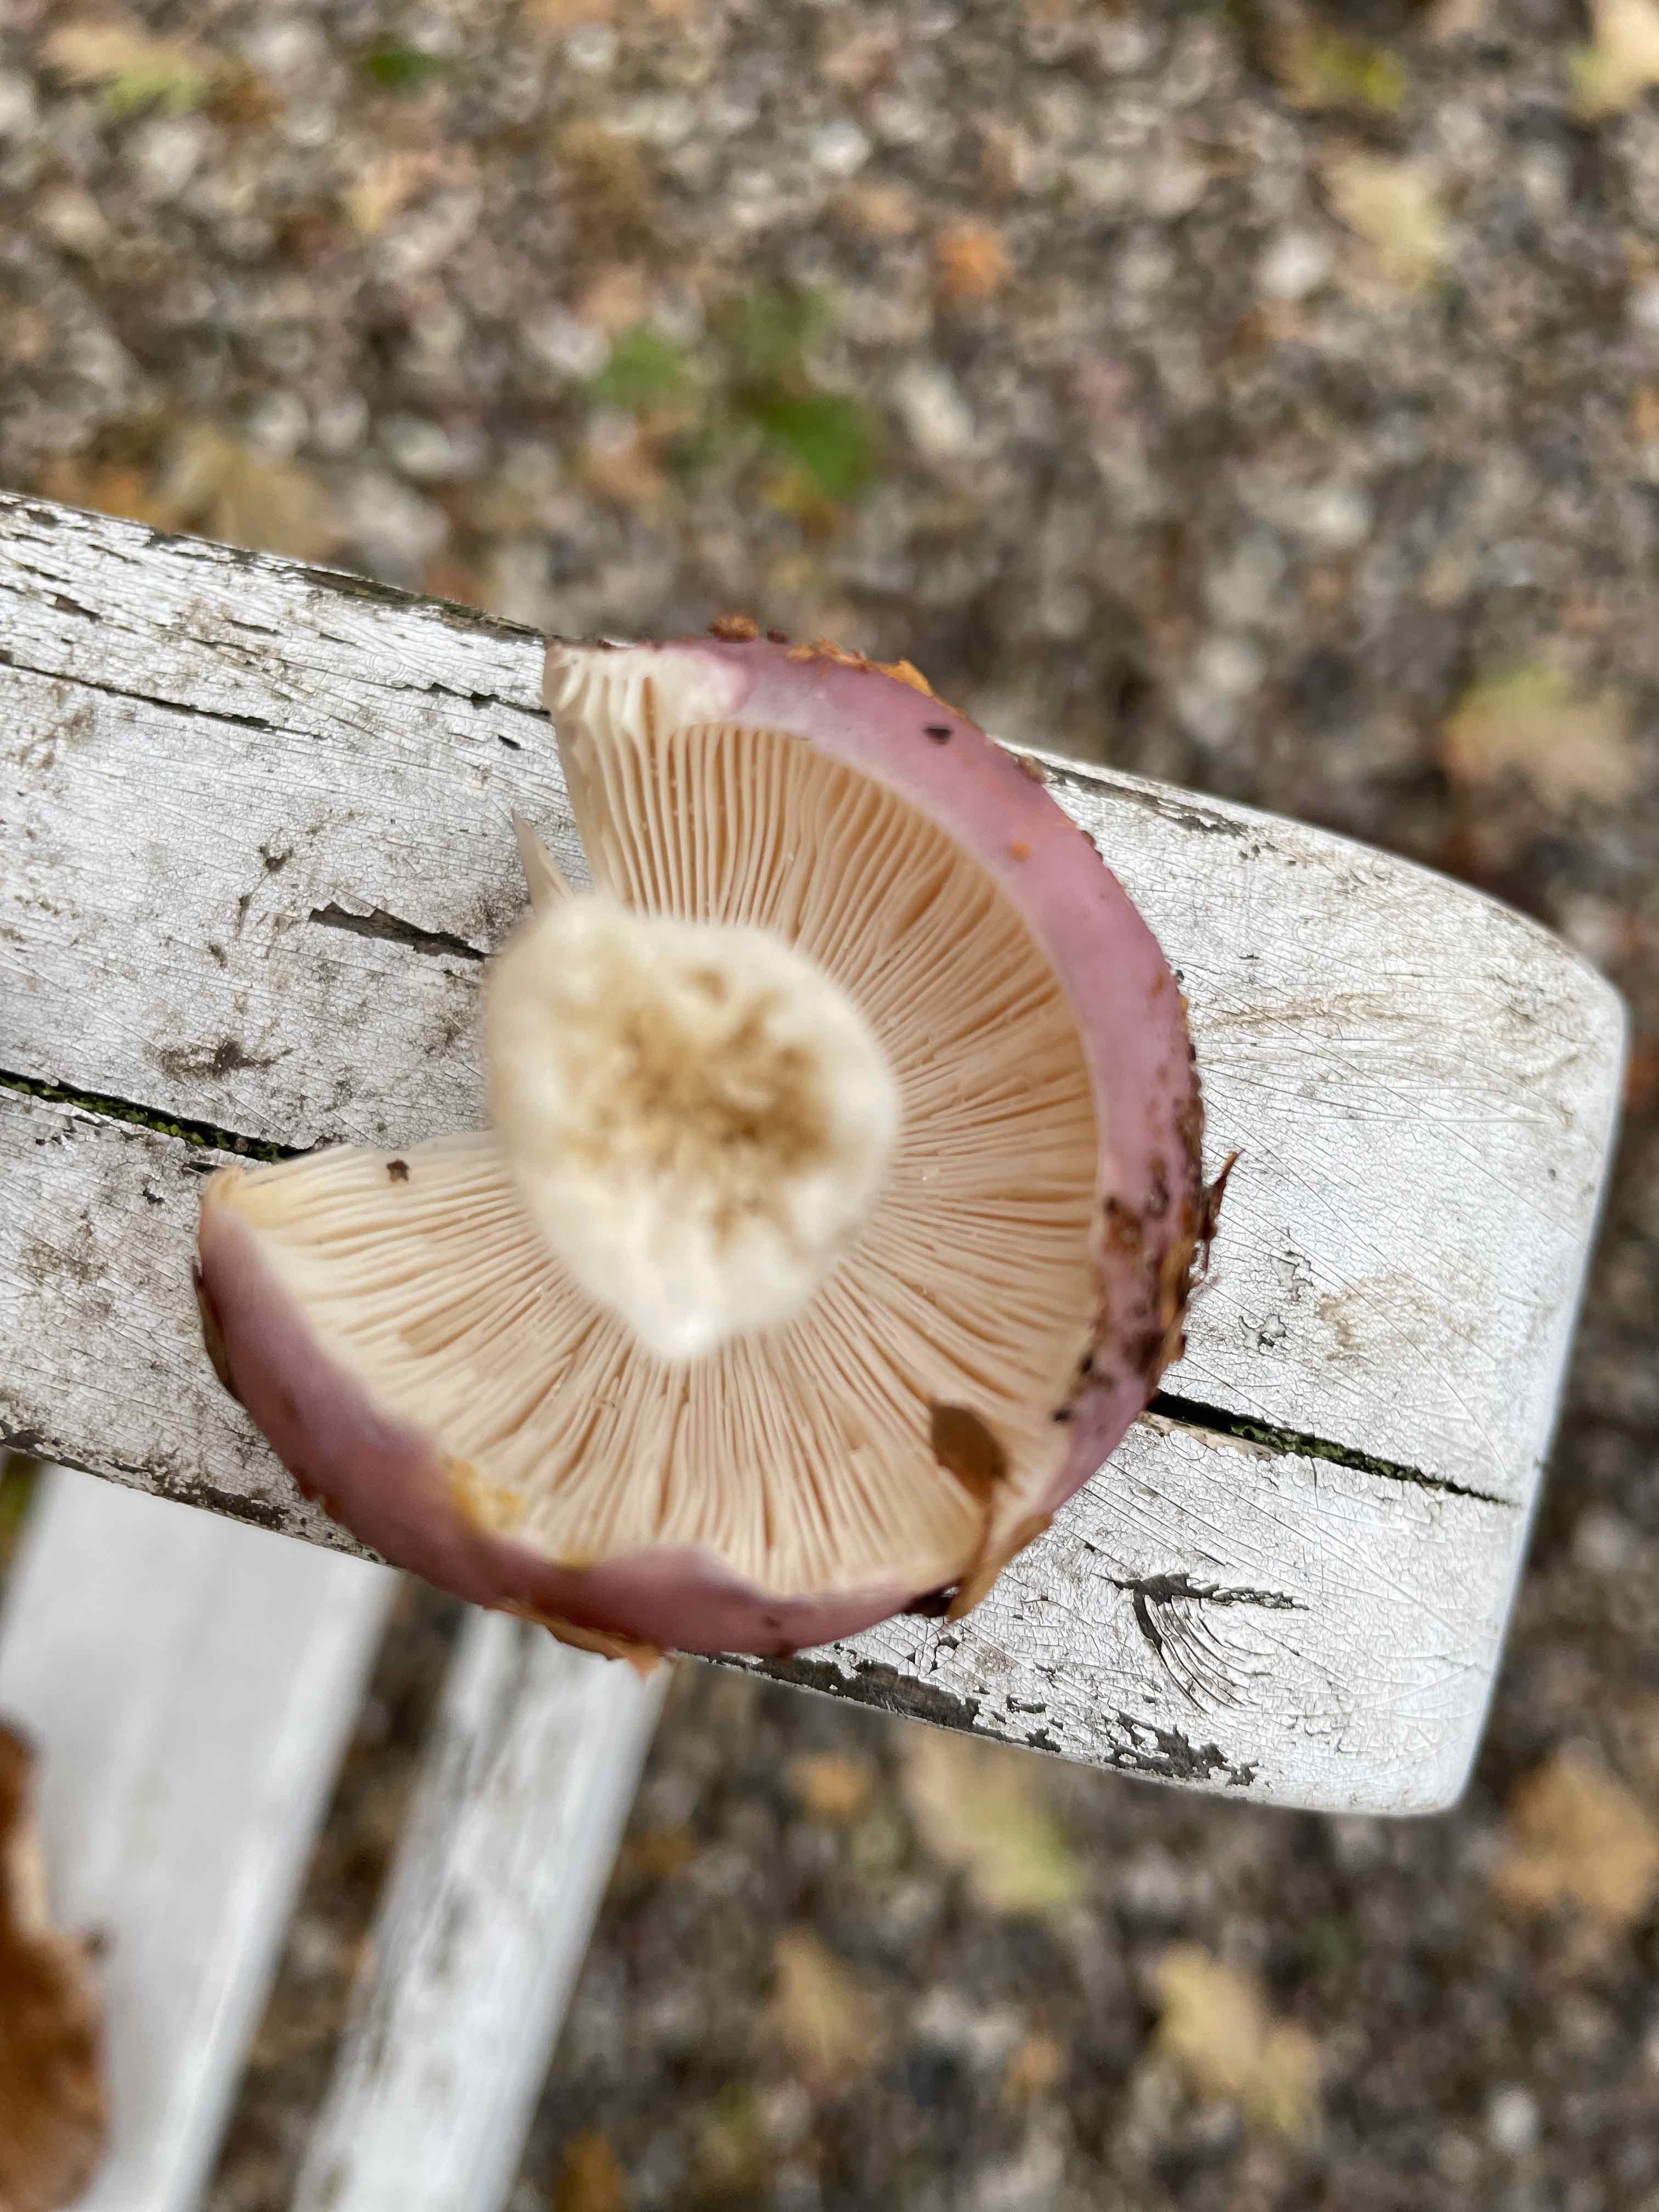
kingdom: Fungi
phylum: Basidiomycota
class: Agaricomycetes
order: Russulales
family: Russulaceae
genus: Russula
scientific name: Russula
